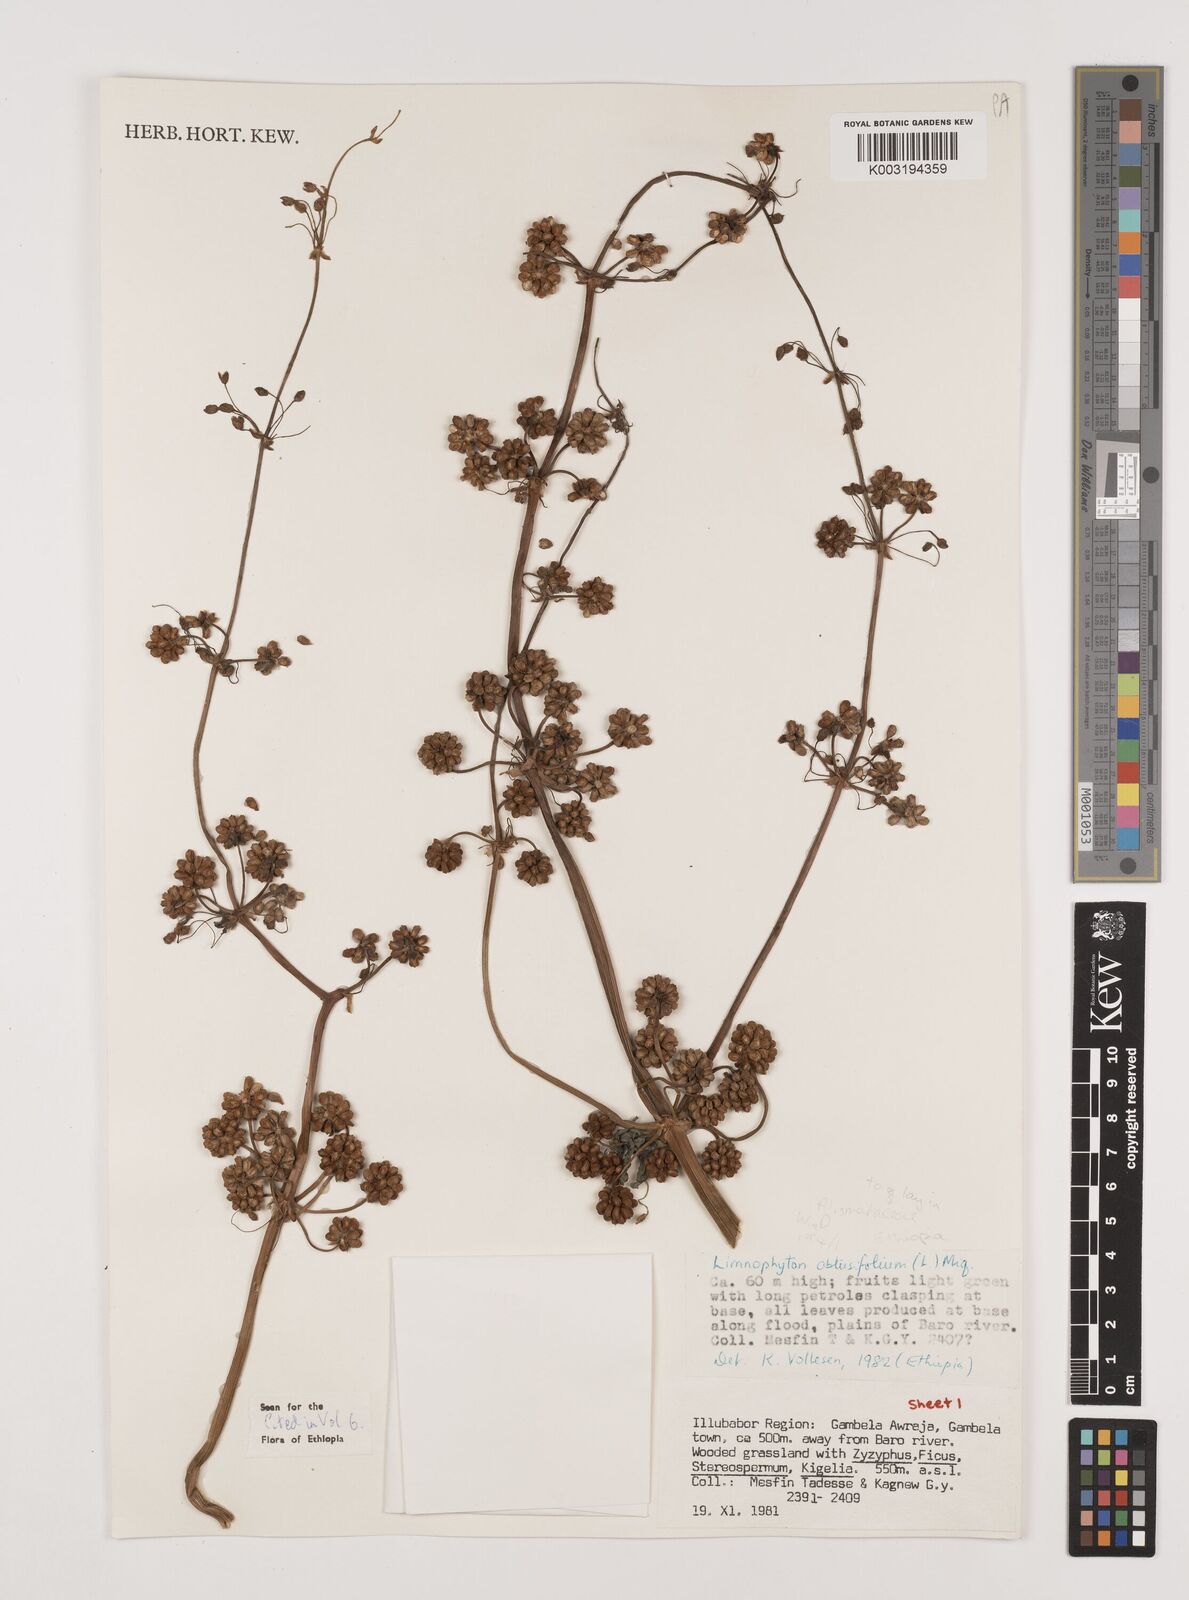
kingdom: Plantae
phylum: Tracheophyta
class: Liliopsida
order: Alismatales
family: Alismataceae
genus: Limnophyton
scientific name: Limnophyton obtusifolium
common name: Arrow head
